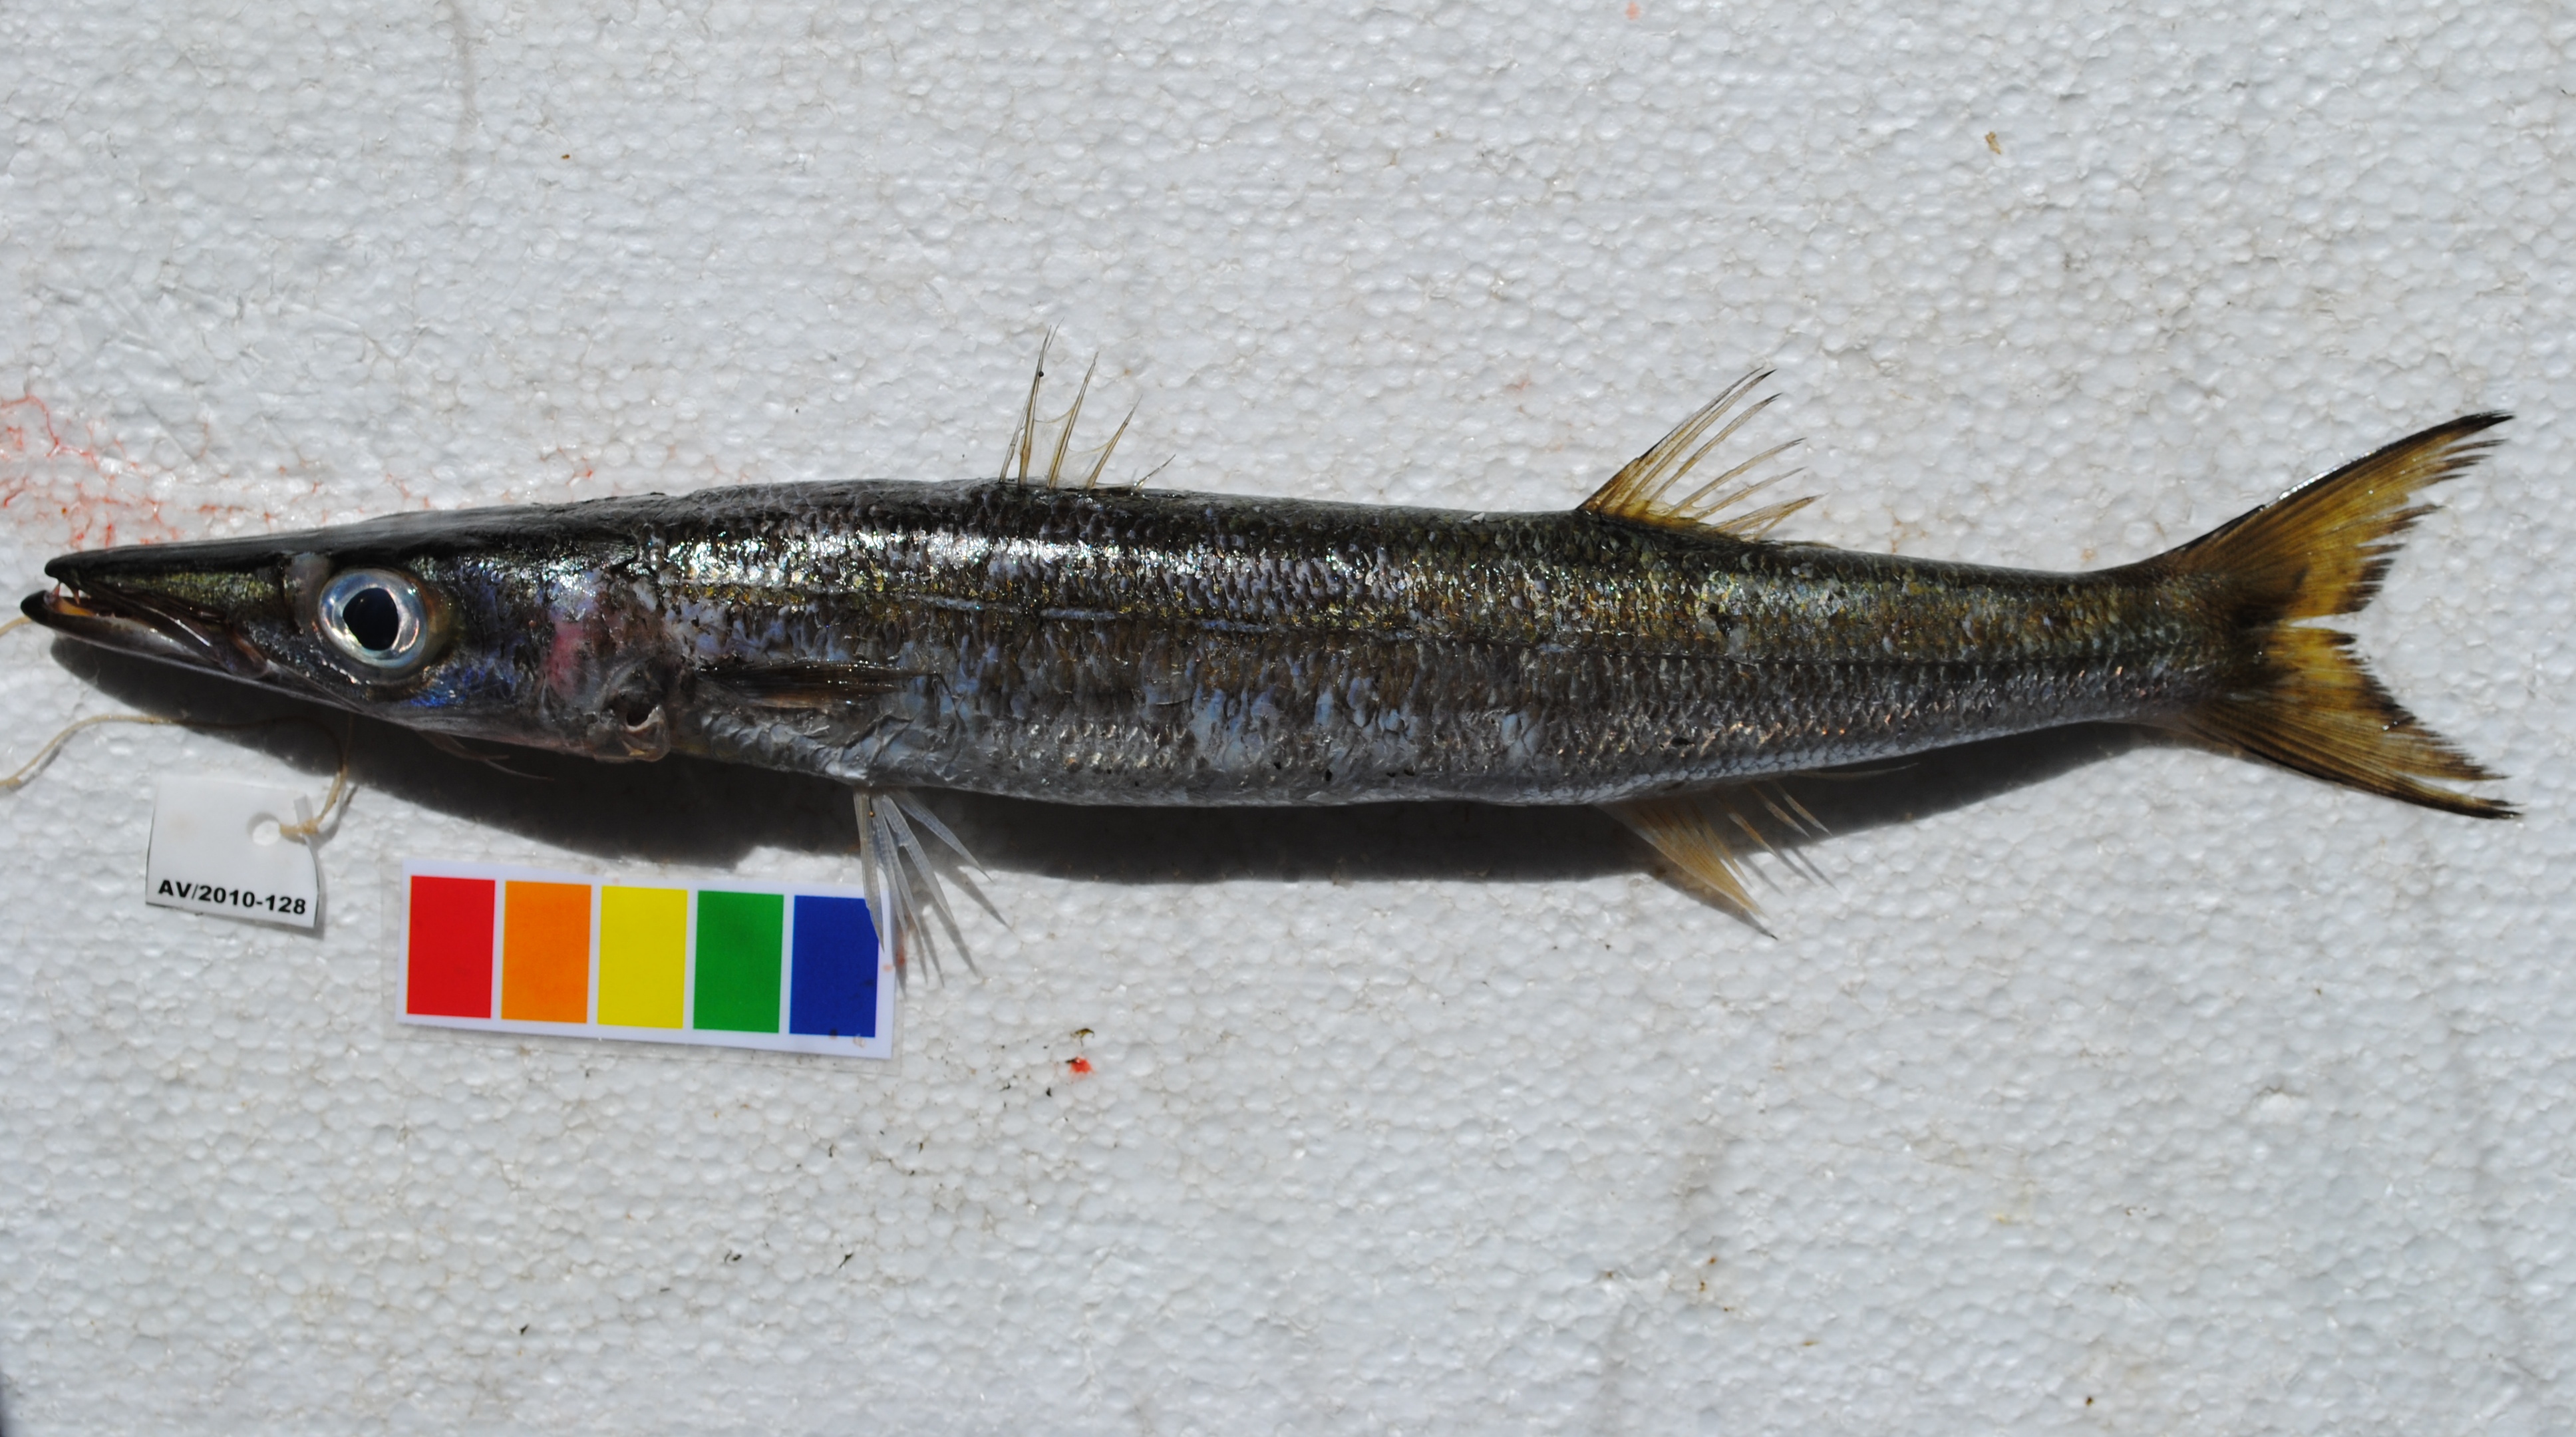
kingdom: Animalia
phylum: Chordata
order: Perciformes
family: Sphyraenidae
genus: Sphyraena
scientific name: Sphyraena obtusata
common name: Obtuse barracuda
